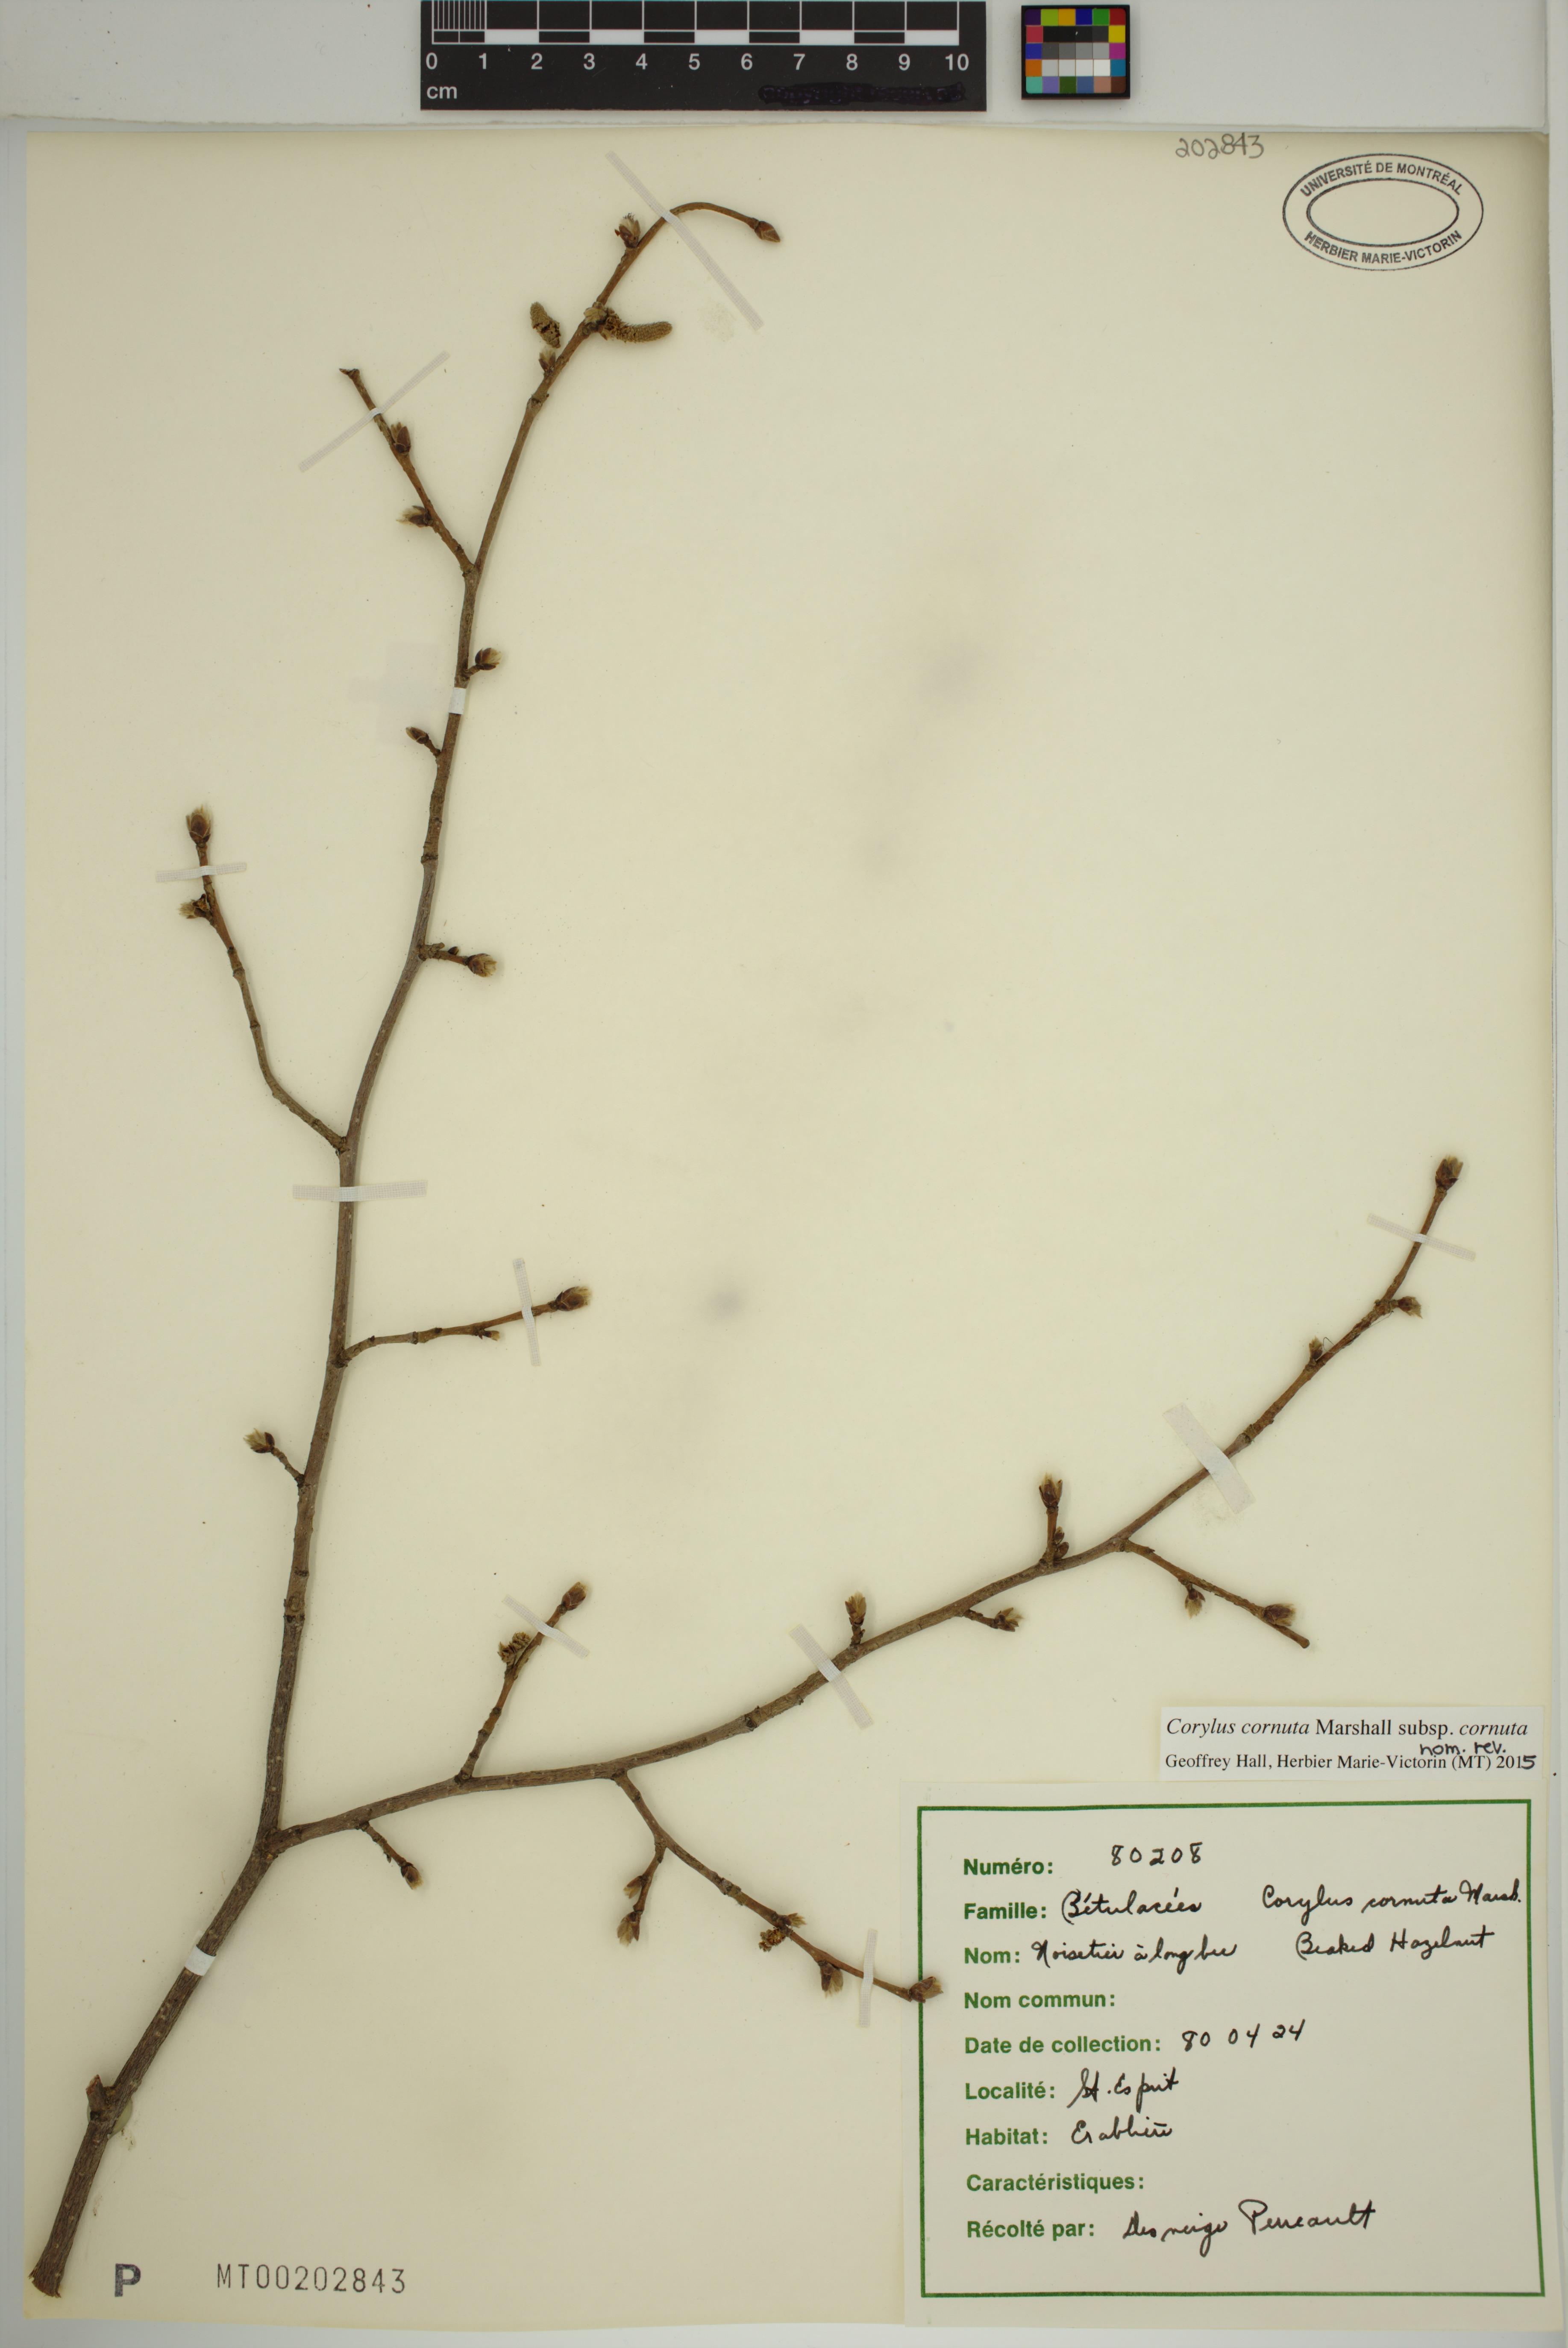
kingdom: Plantae
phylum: Tracheophyta
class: Magnoliopsida
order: Fagales
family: Betulaceae
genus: Corylus
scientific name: Corylus cornuta
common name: Beaked hazel
